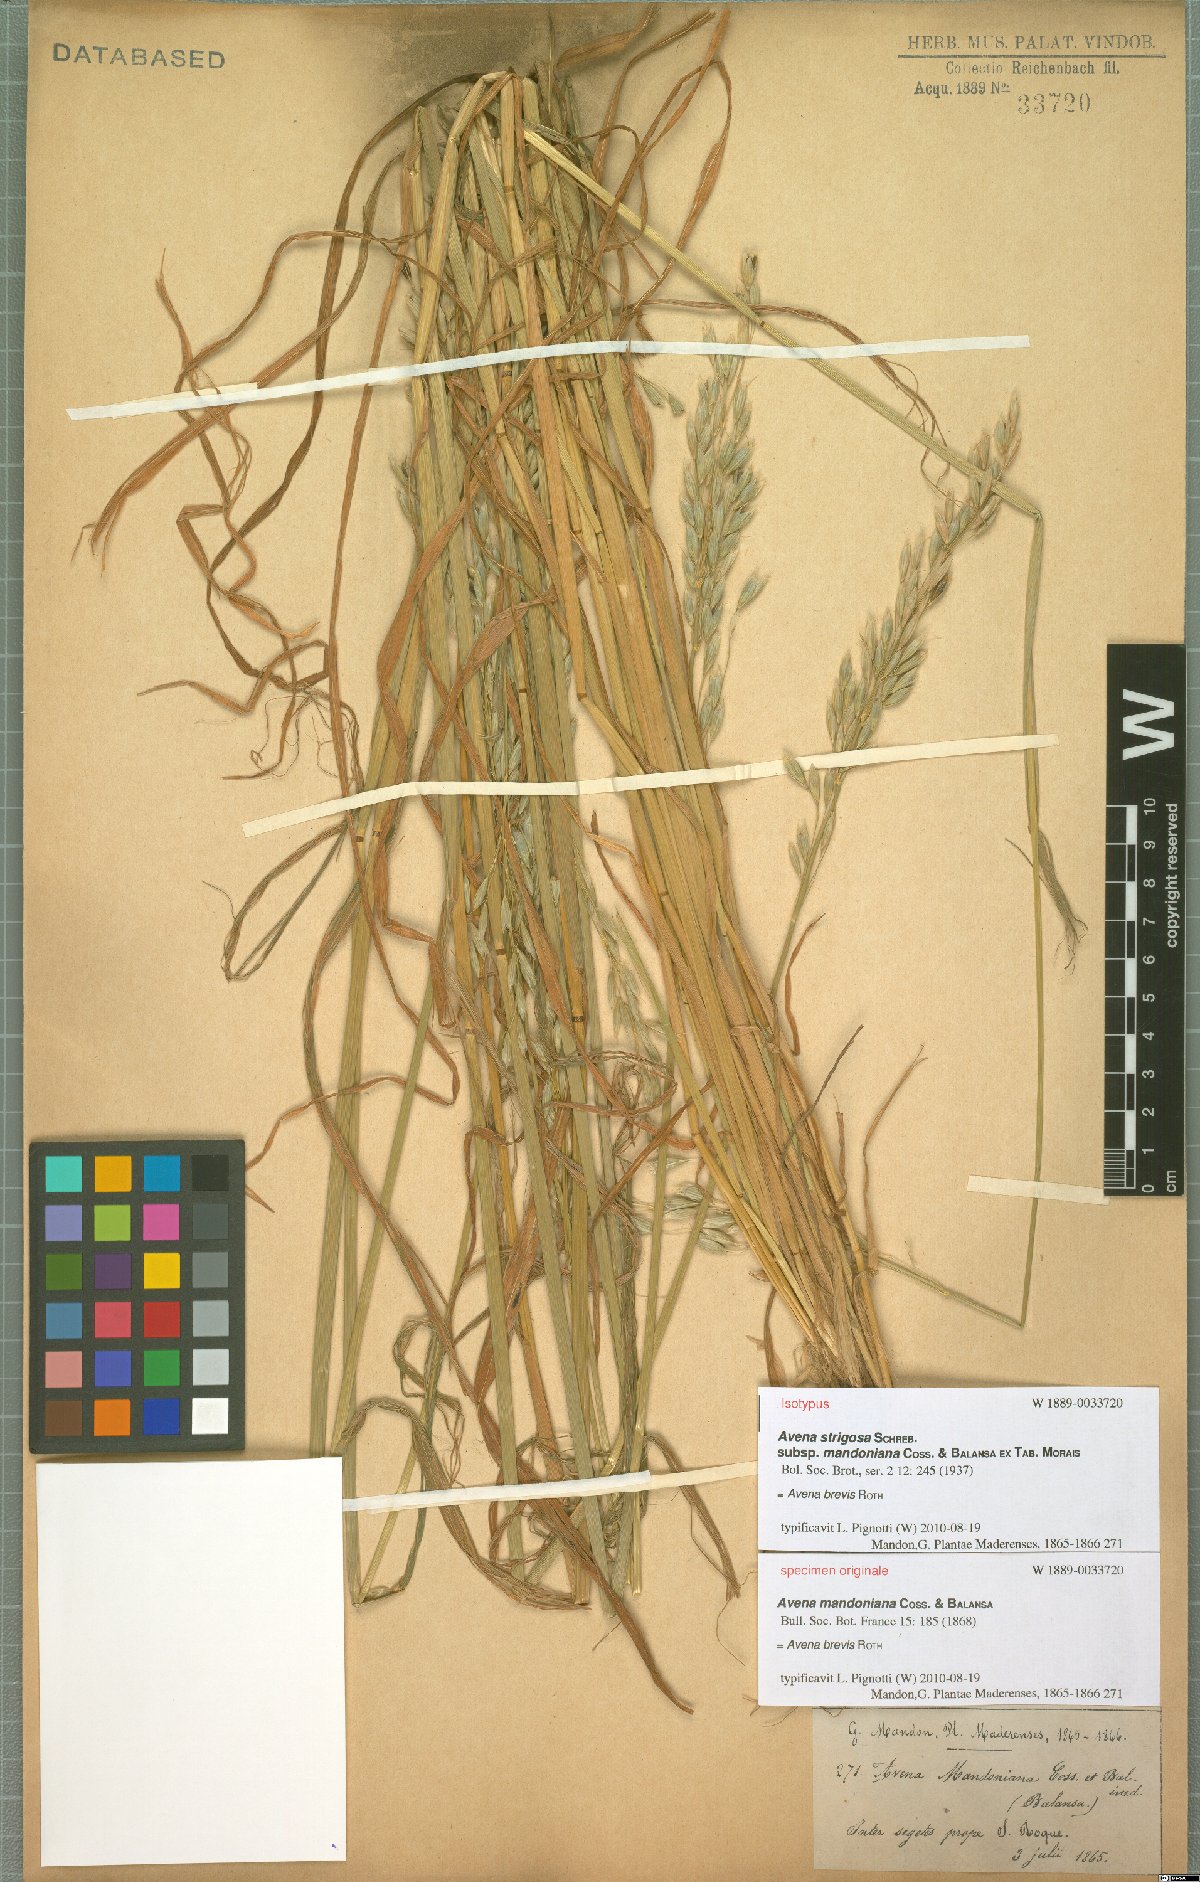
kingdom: Plantae
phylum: Tracheophyta
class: Liliopsida
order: Poales
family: Poaceae
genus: Avena
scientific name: Avena brevis
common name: Short oat
